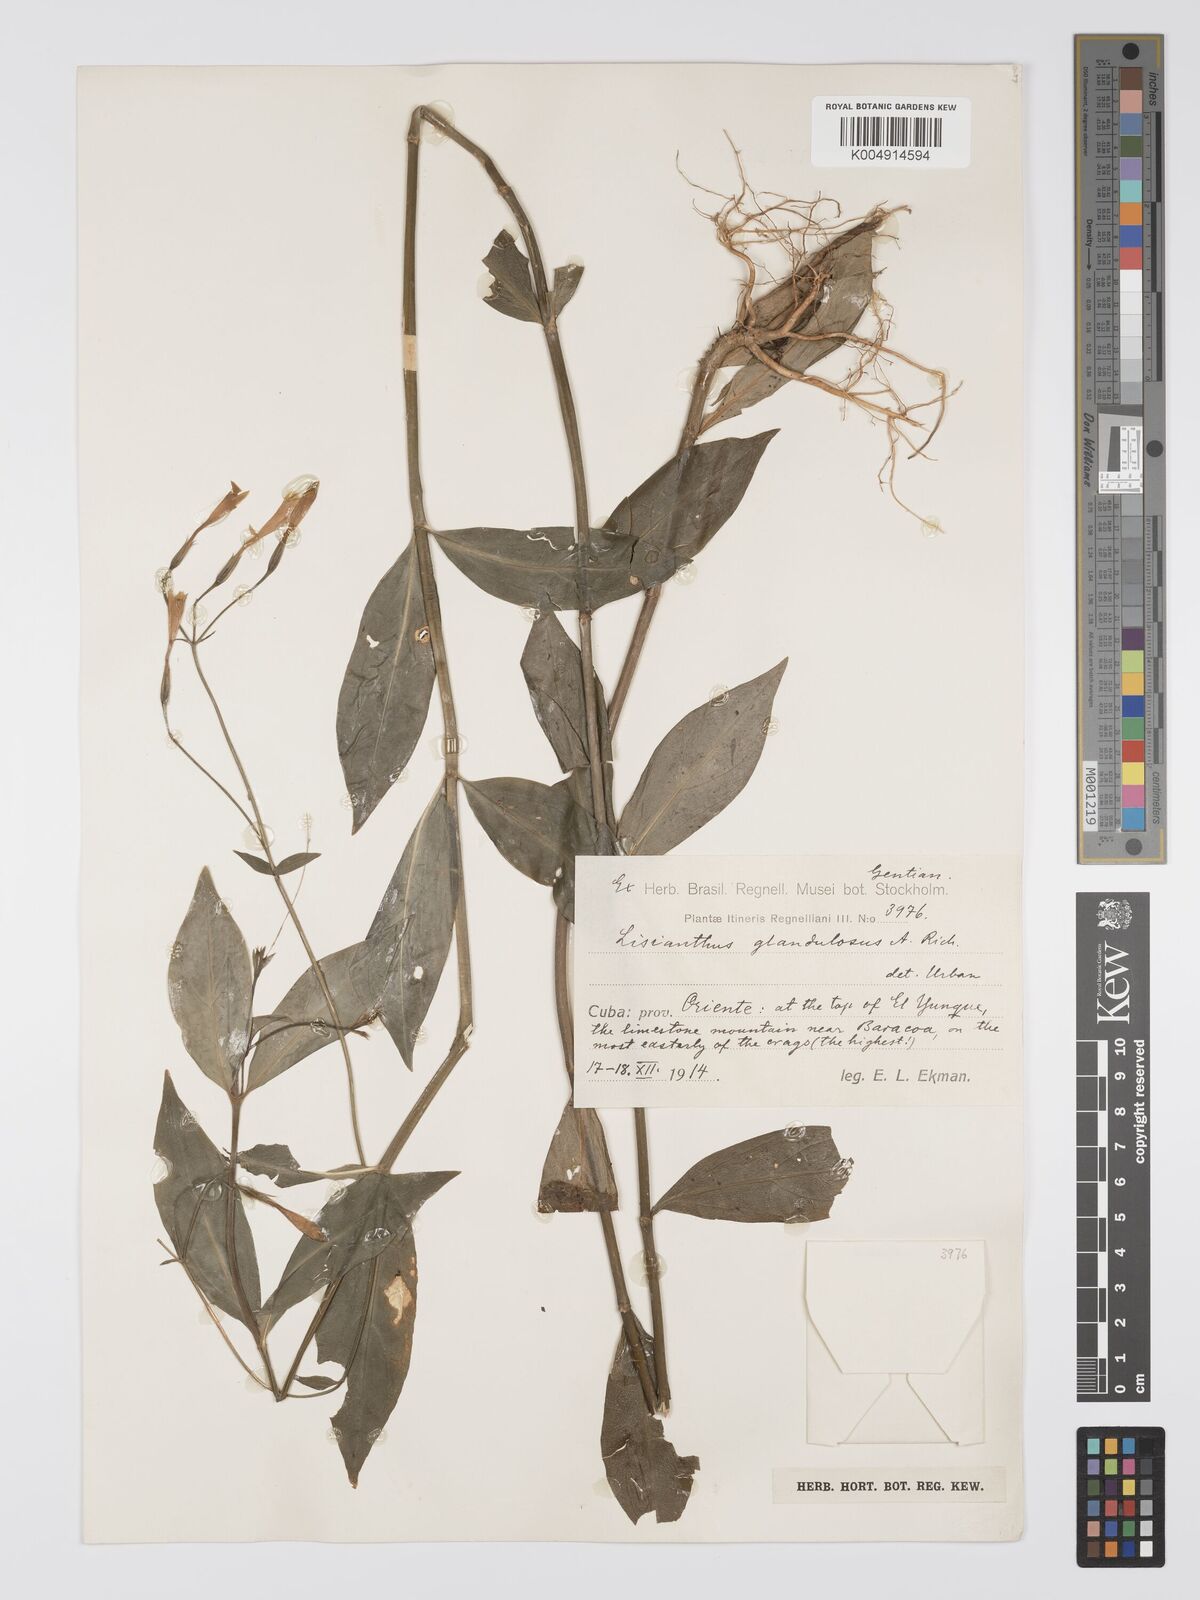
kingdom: Plantae
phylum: Tracheophyta
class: Magnoliopsida
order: Gentianales
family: Gentianaceae
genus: Lisianthus
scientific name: Lisianthus glandulosus
